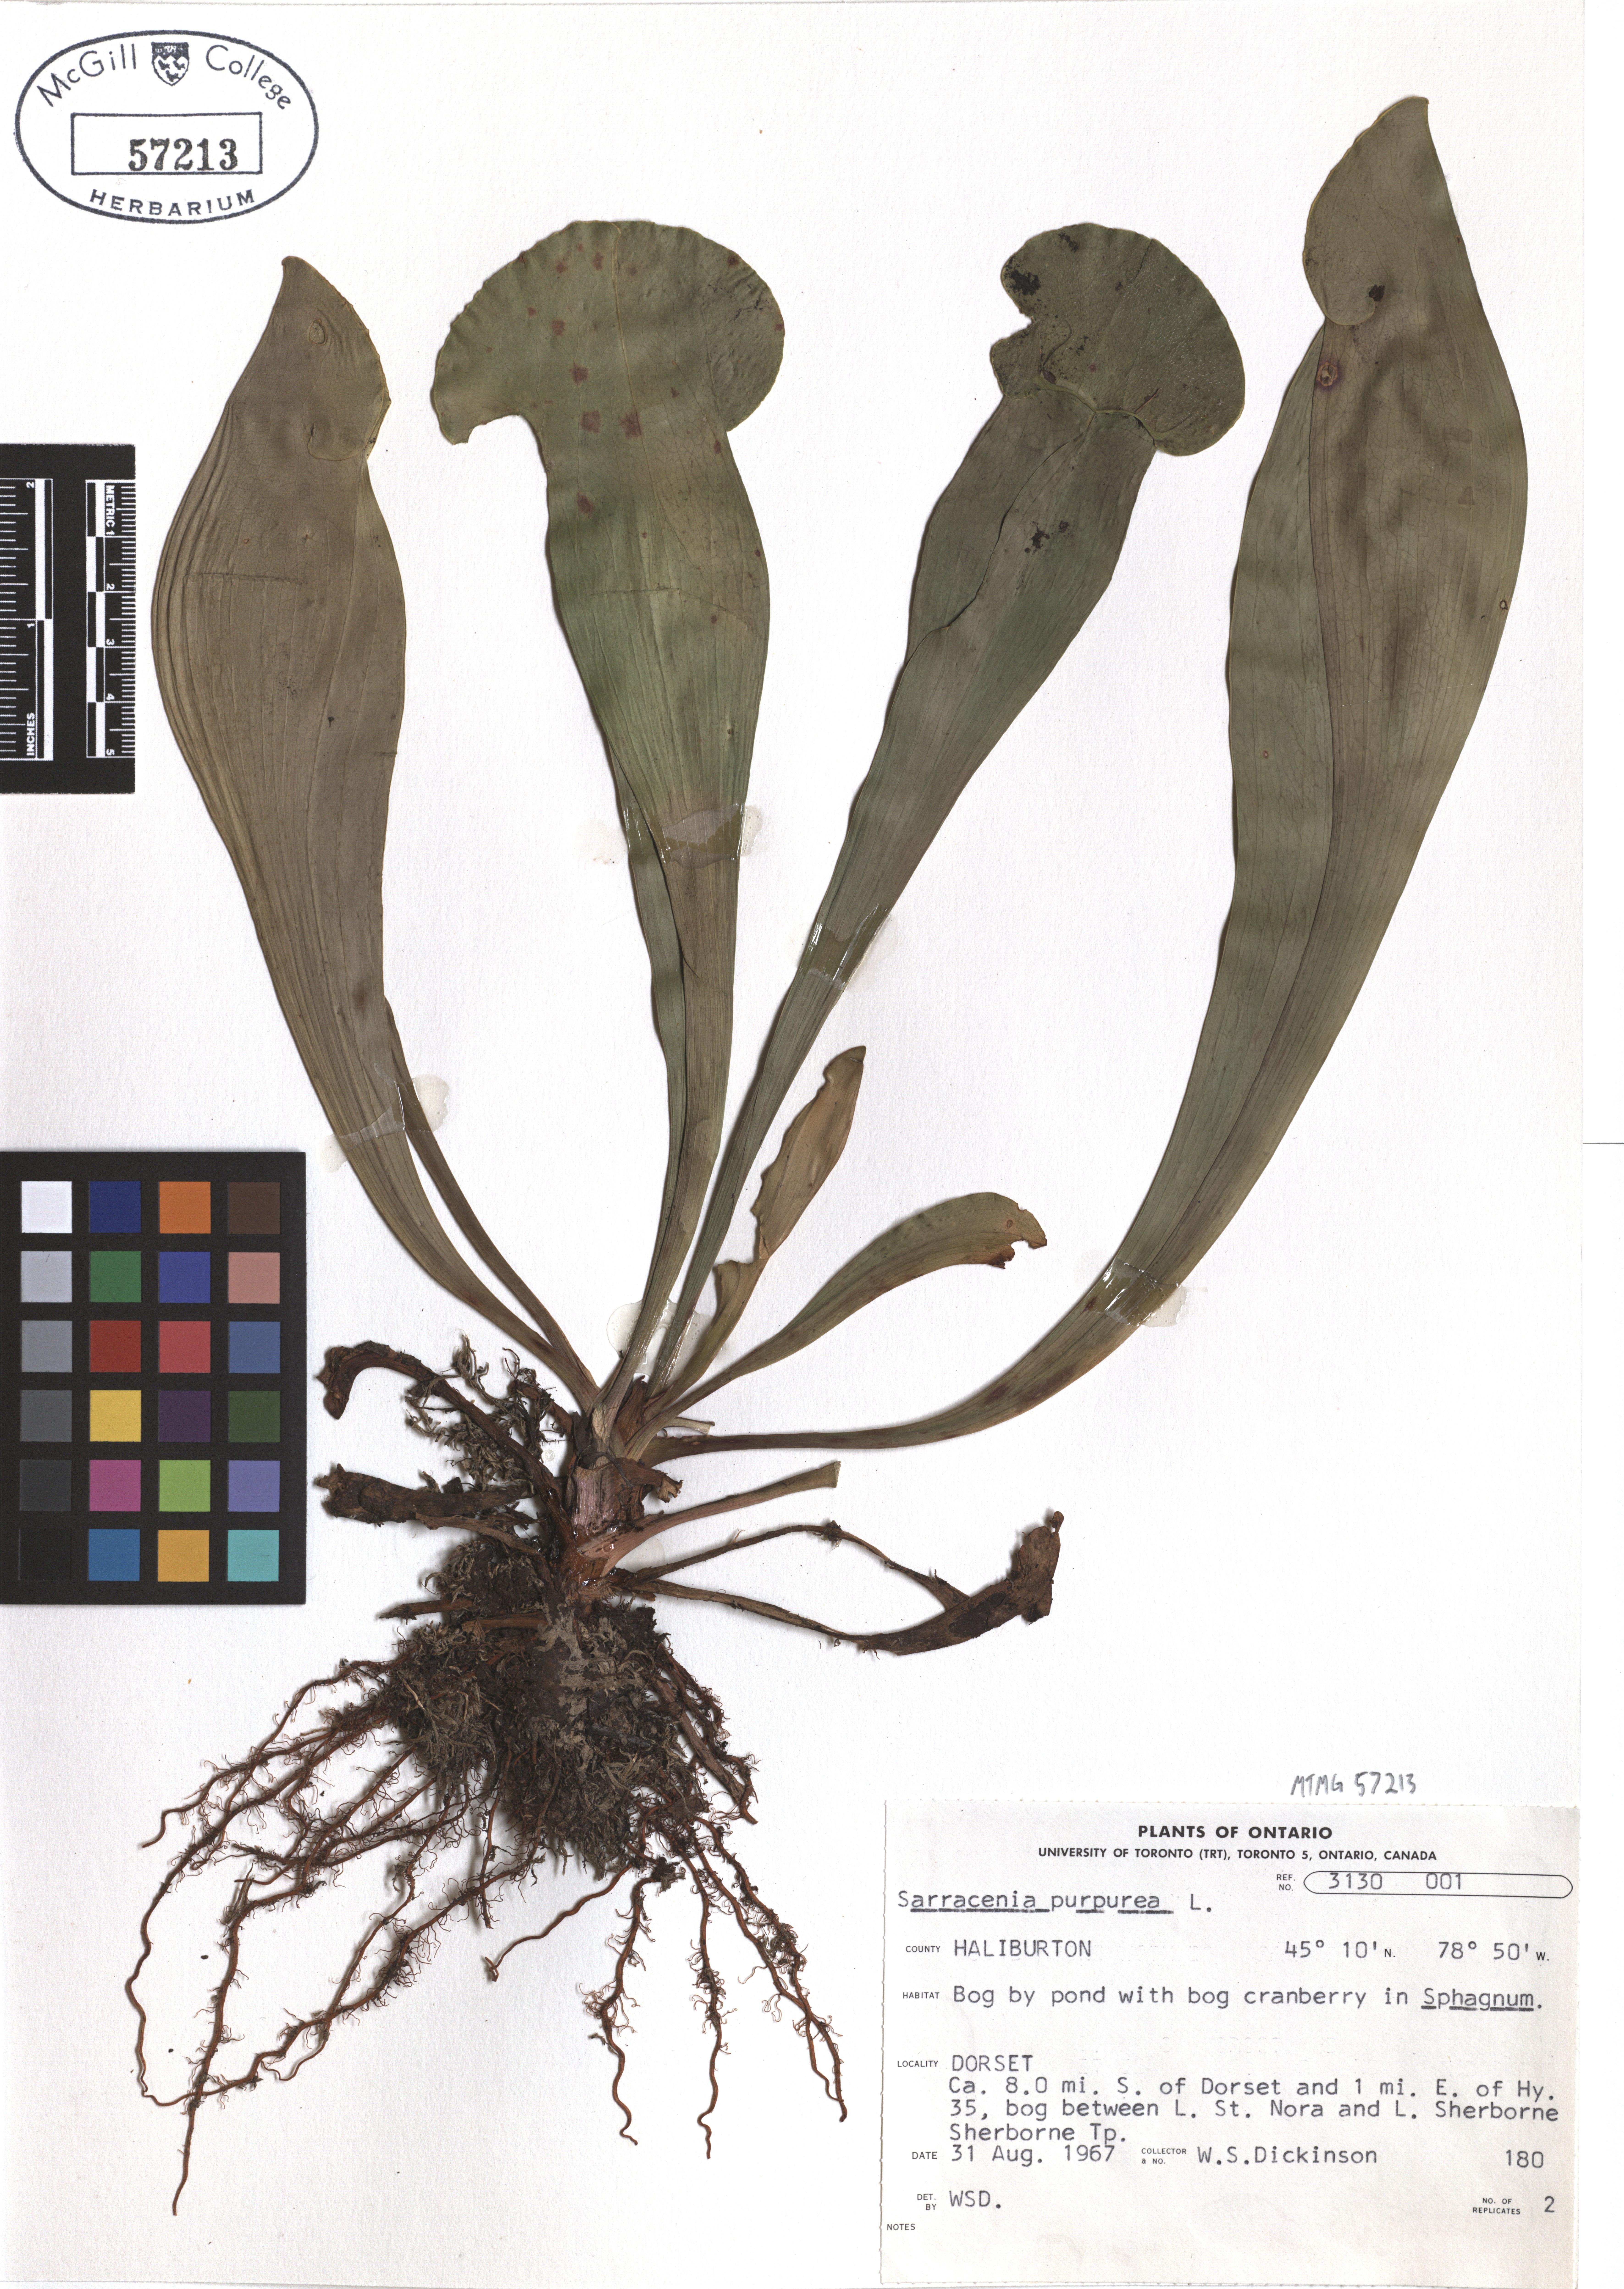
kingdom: Plantae
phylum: Tracheophyta
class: Magnoliopsida
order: Ericales
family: Sarraceniaceae
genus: Sarracenia
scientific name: Sarracenia purpurea
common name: Pitcherplant
